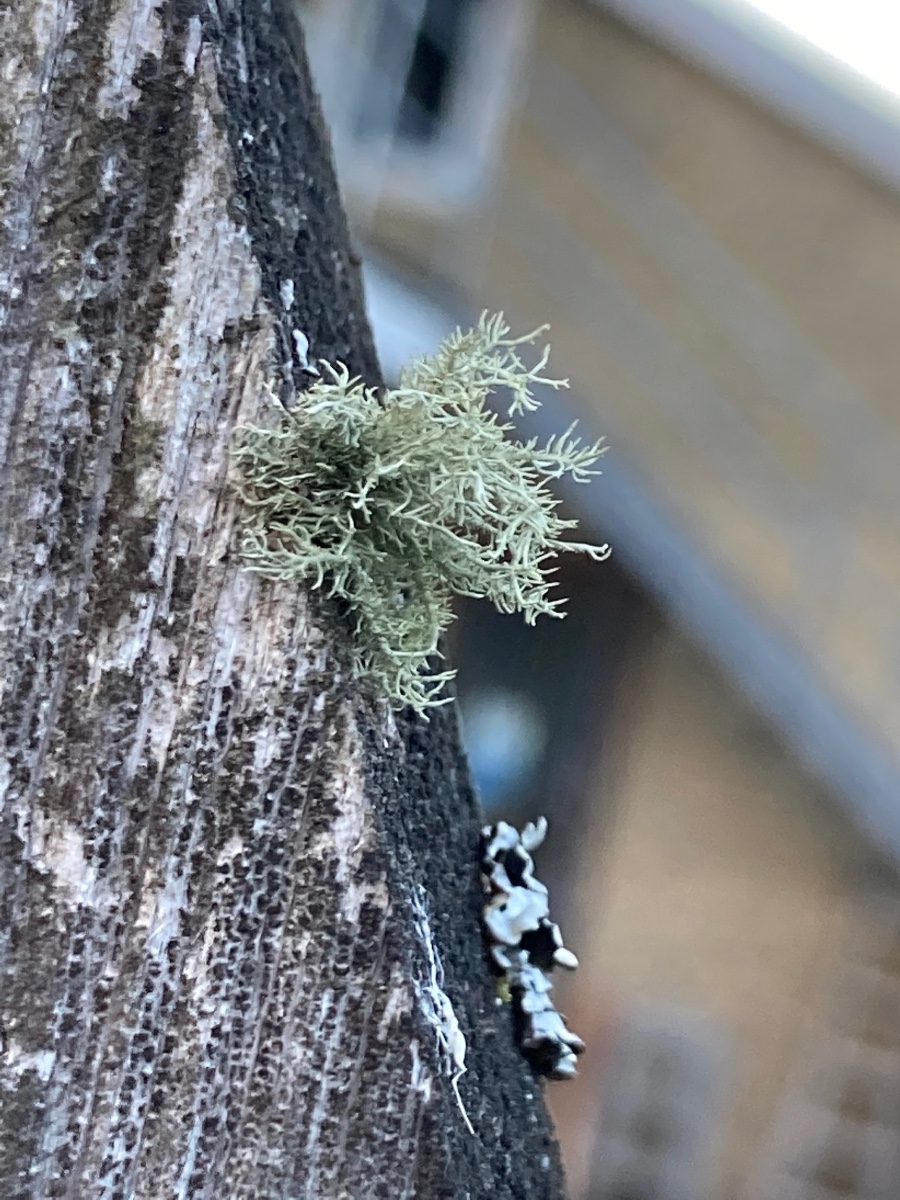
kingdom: Fungi
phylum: Ascomycota
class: Lecanoromycetes
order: Lecanorales
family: Parmeliaceae
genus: Usnea
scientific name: Usnea hirta
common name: liden skæglav
